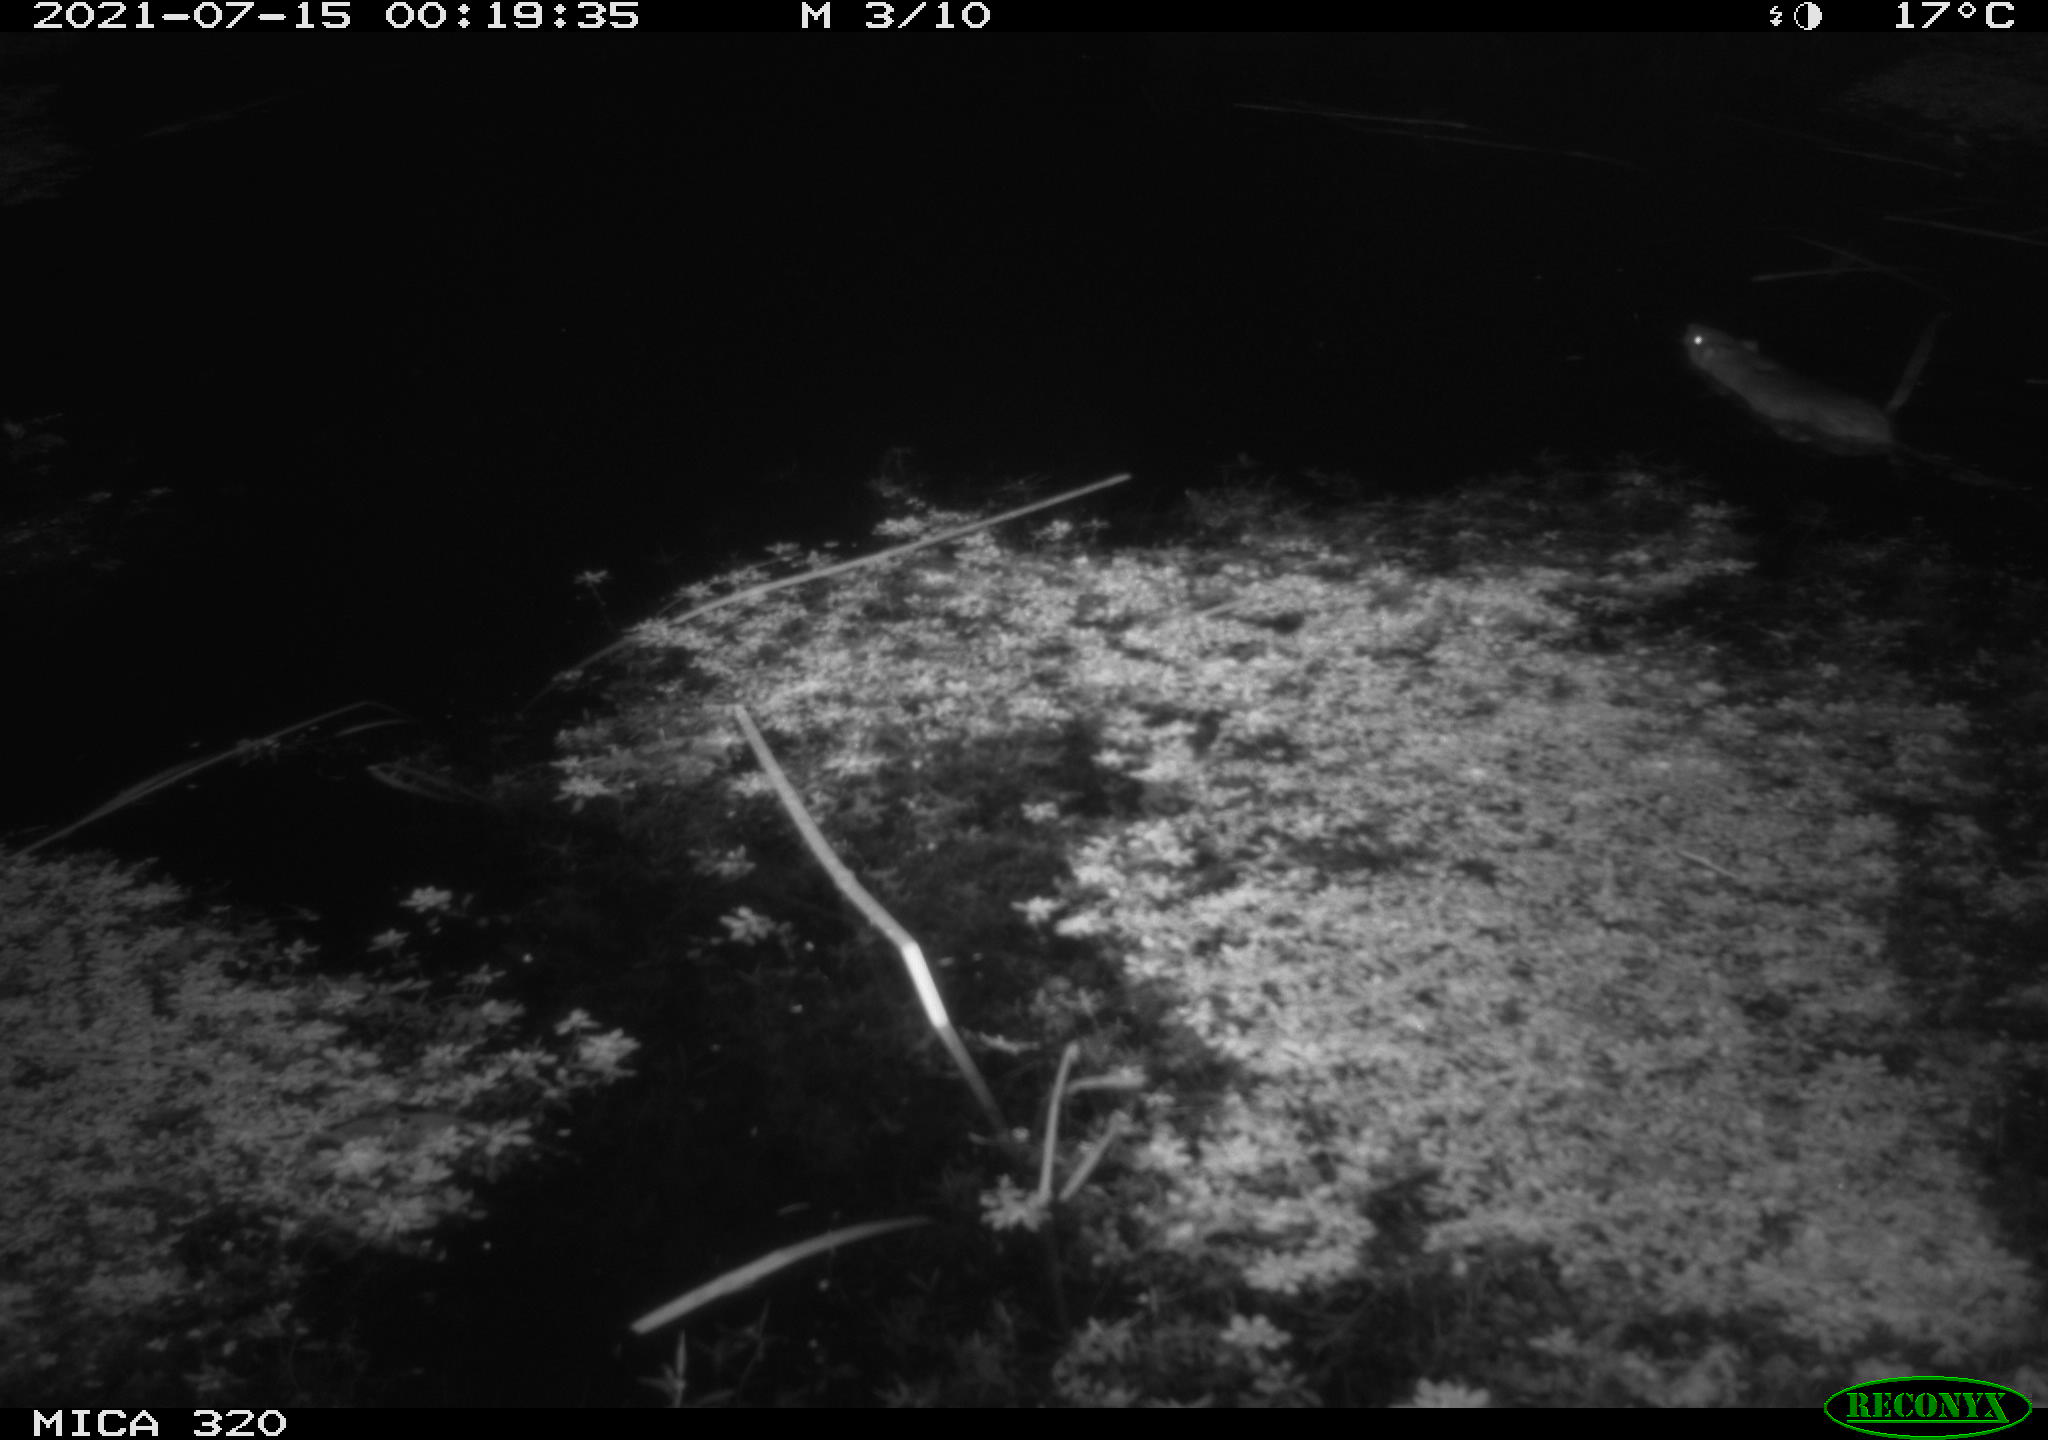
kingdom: Animalia
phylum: Chordata
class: Mammalia
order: Rodentia
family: Muridae
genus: Rattus
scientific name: Rattus norvegicus
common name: Brown rat
